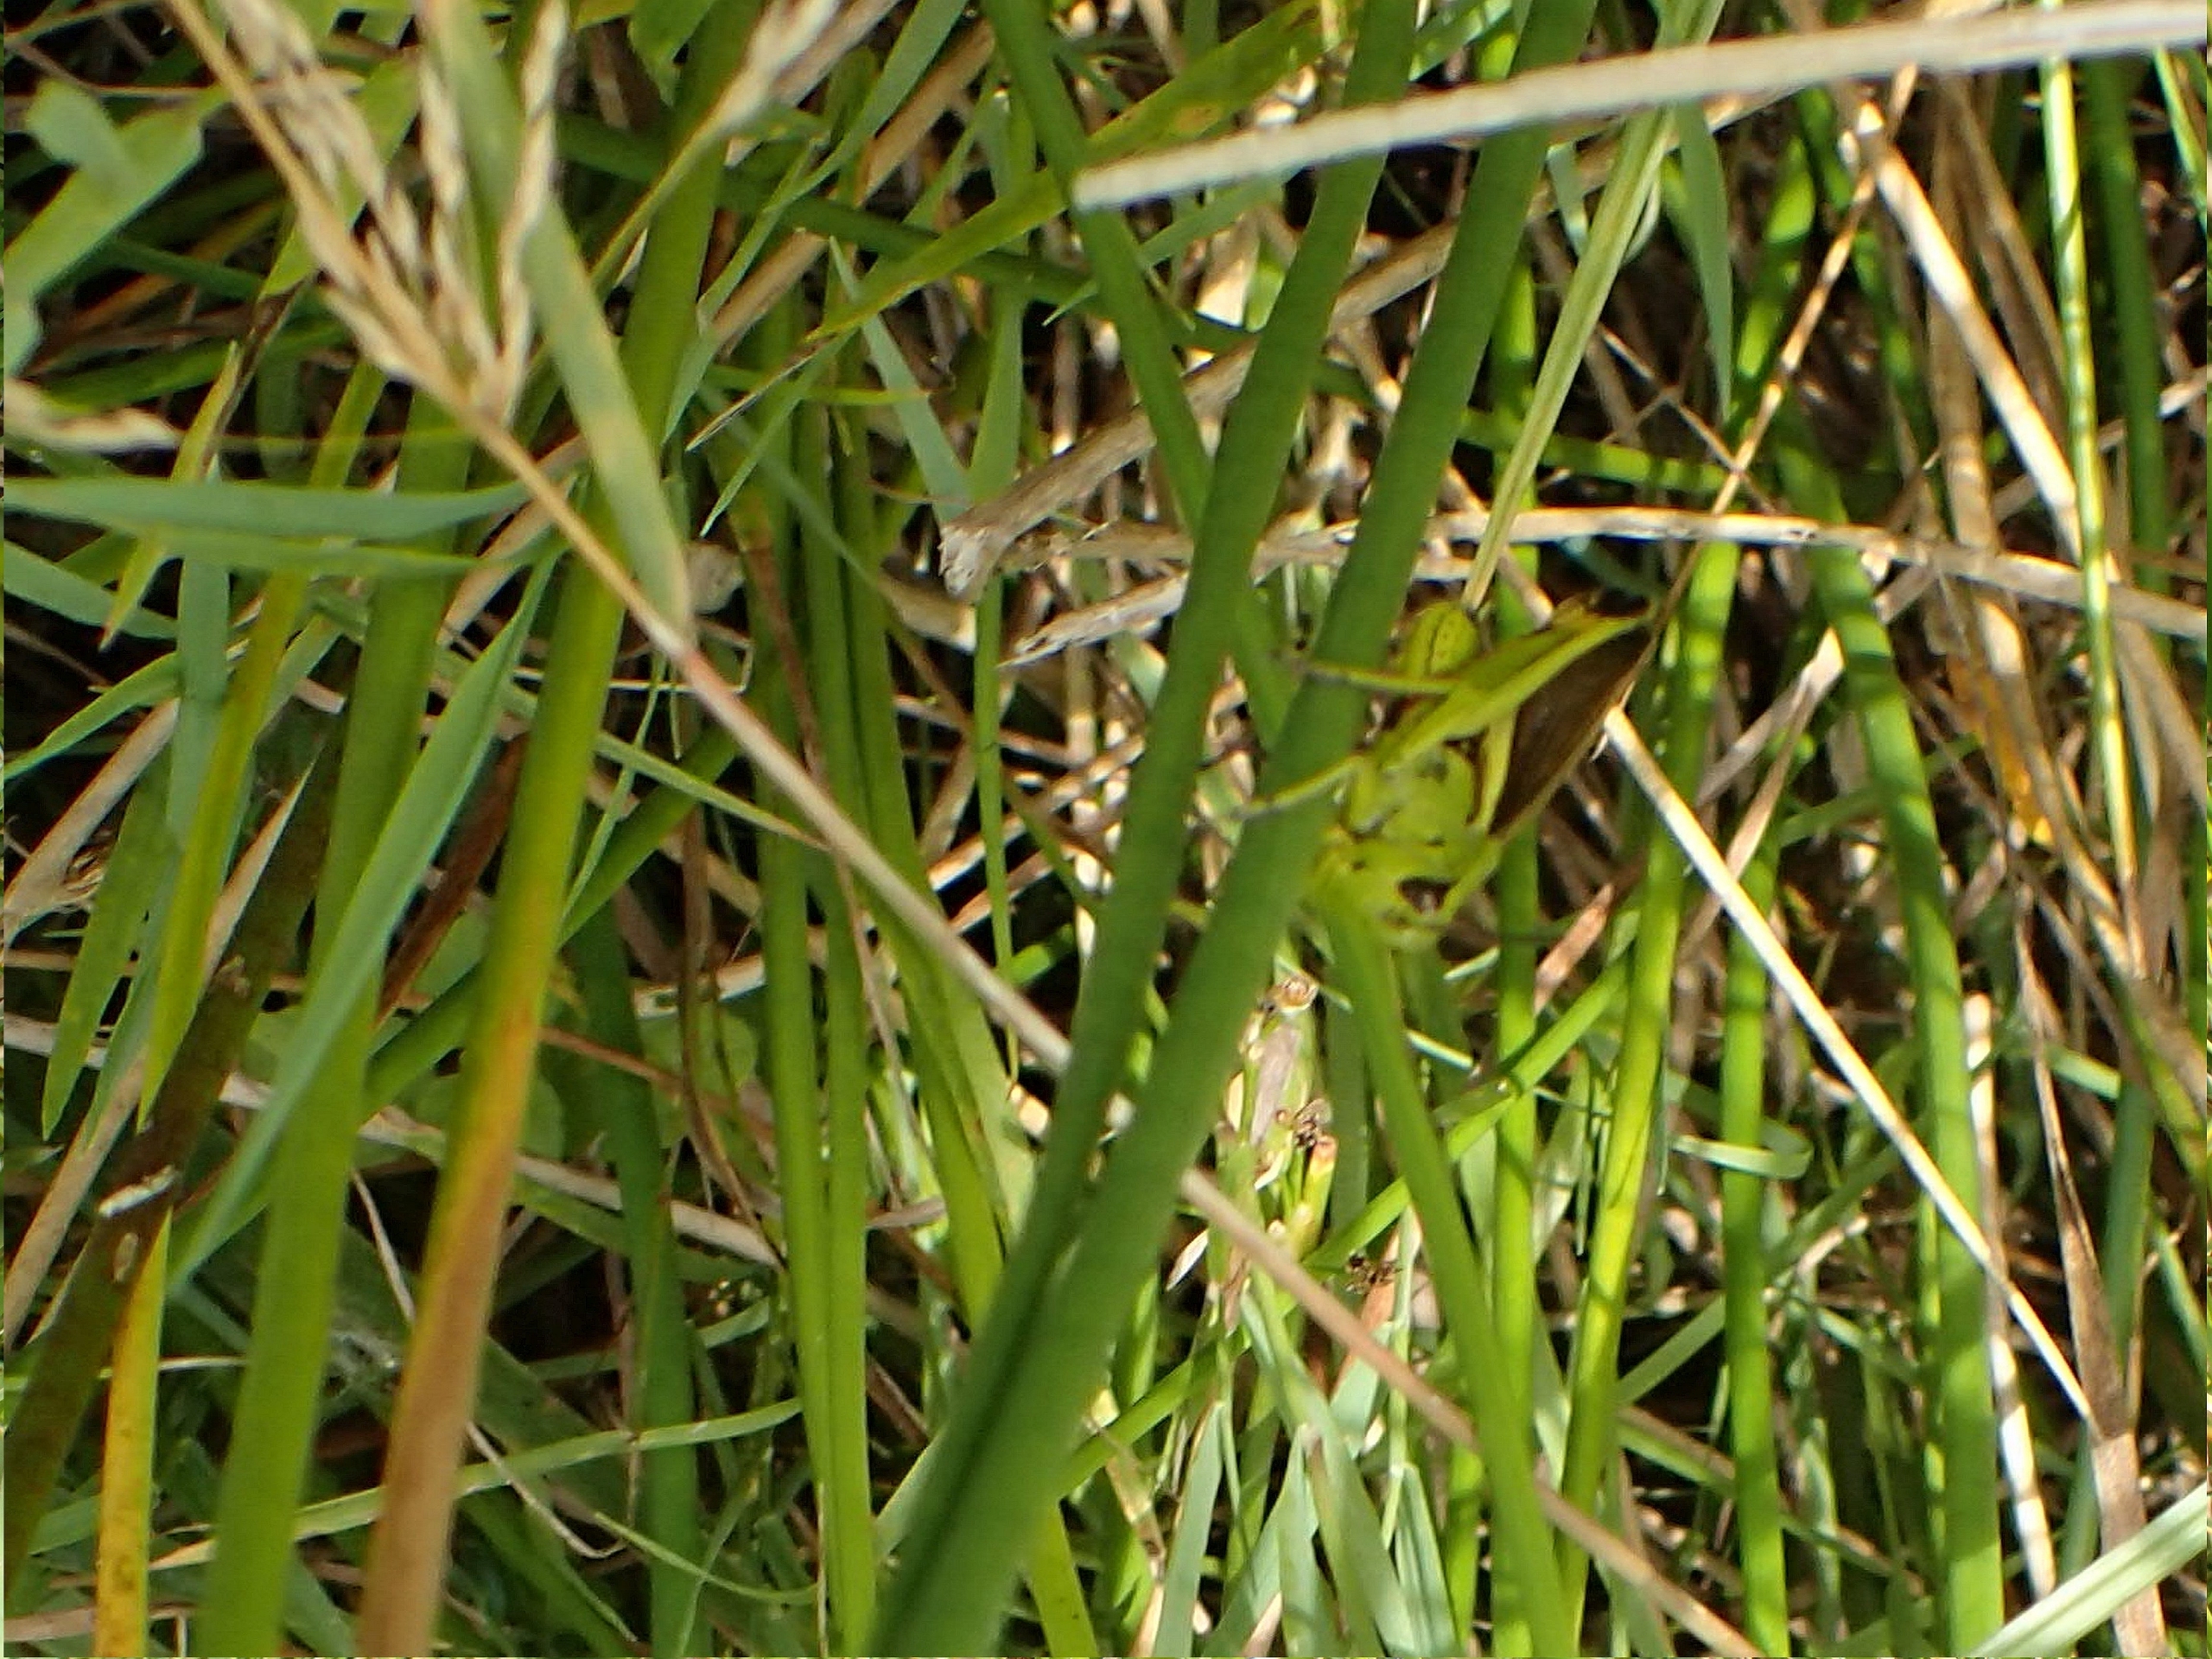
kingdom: Animalia
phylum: Arthropoda
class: Insecta
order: Orthoptera
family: Acrididae
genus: Stethophyma
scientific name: Stethophyma grossum
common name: Sumpgræshoppe
